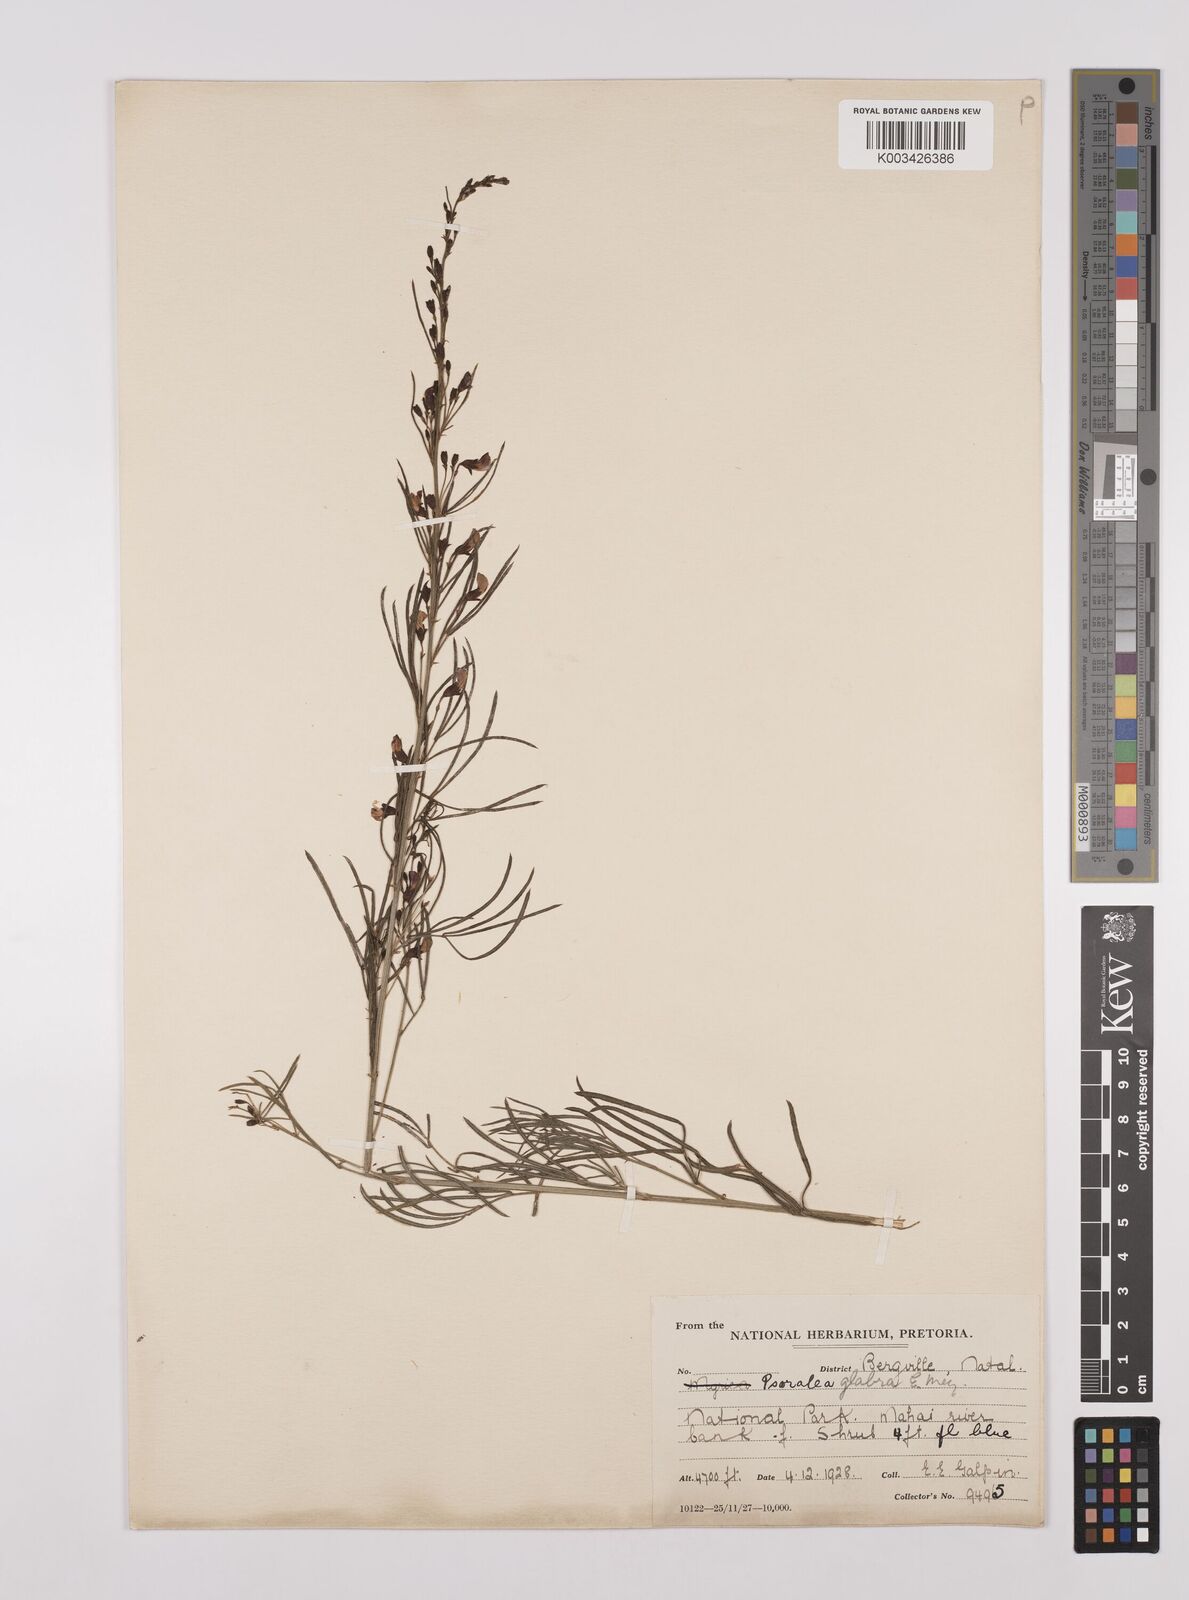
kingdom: Plantae
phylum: Tracheophyta
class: Magnoliopsida
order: Fabales
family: Fabaceae
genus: Psoralea
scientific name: Psoralea rhizotoma
